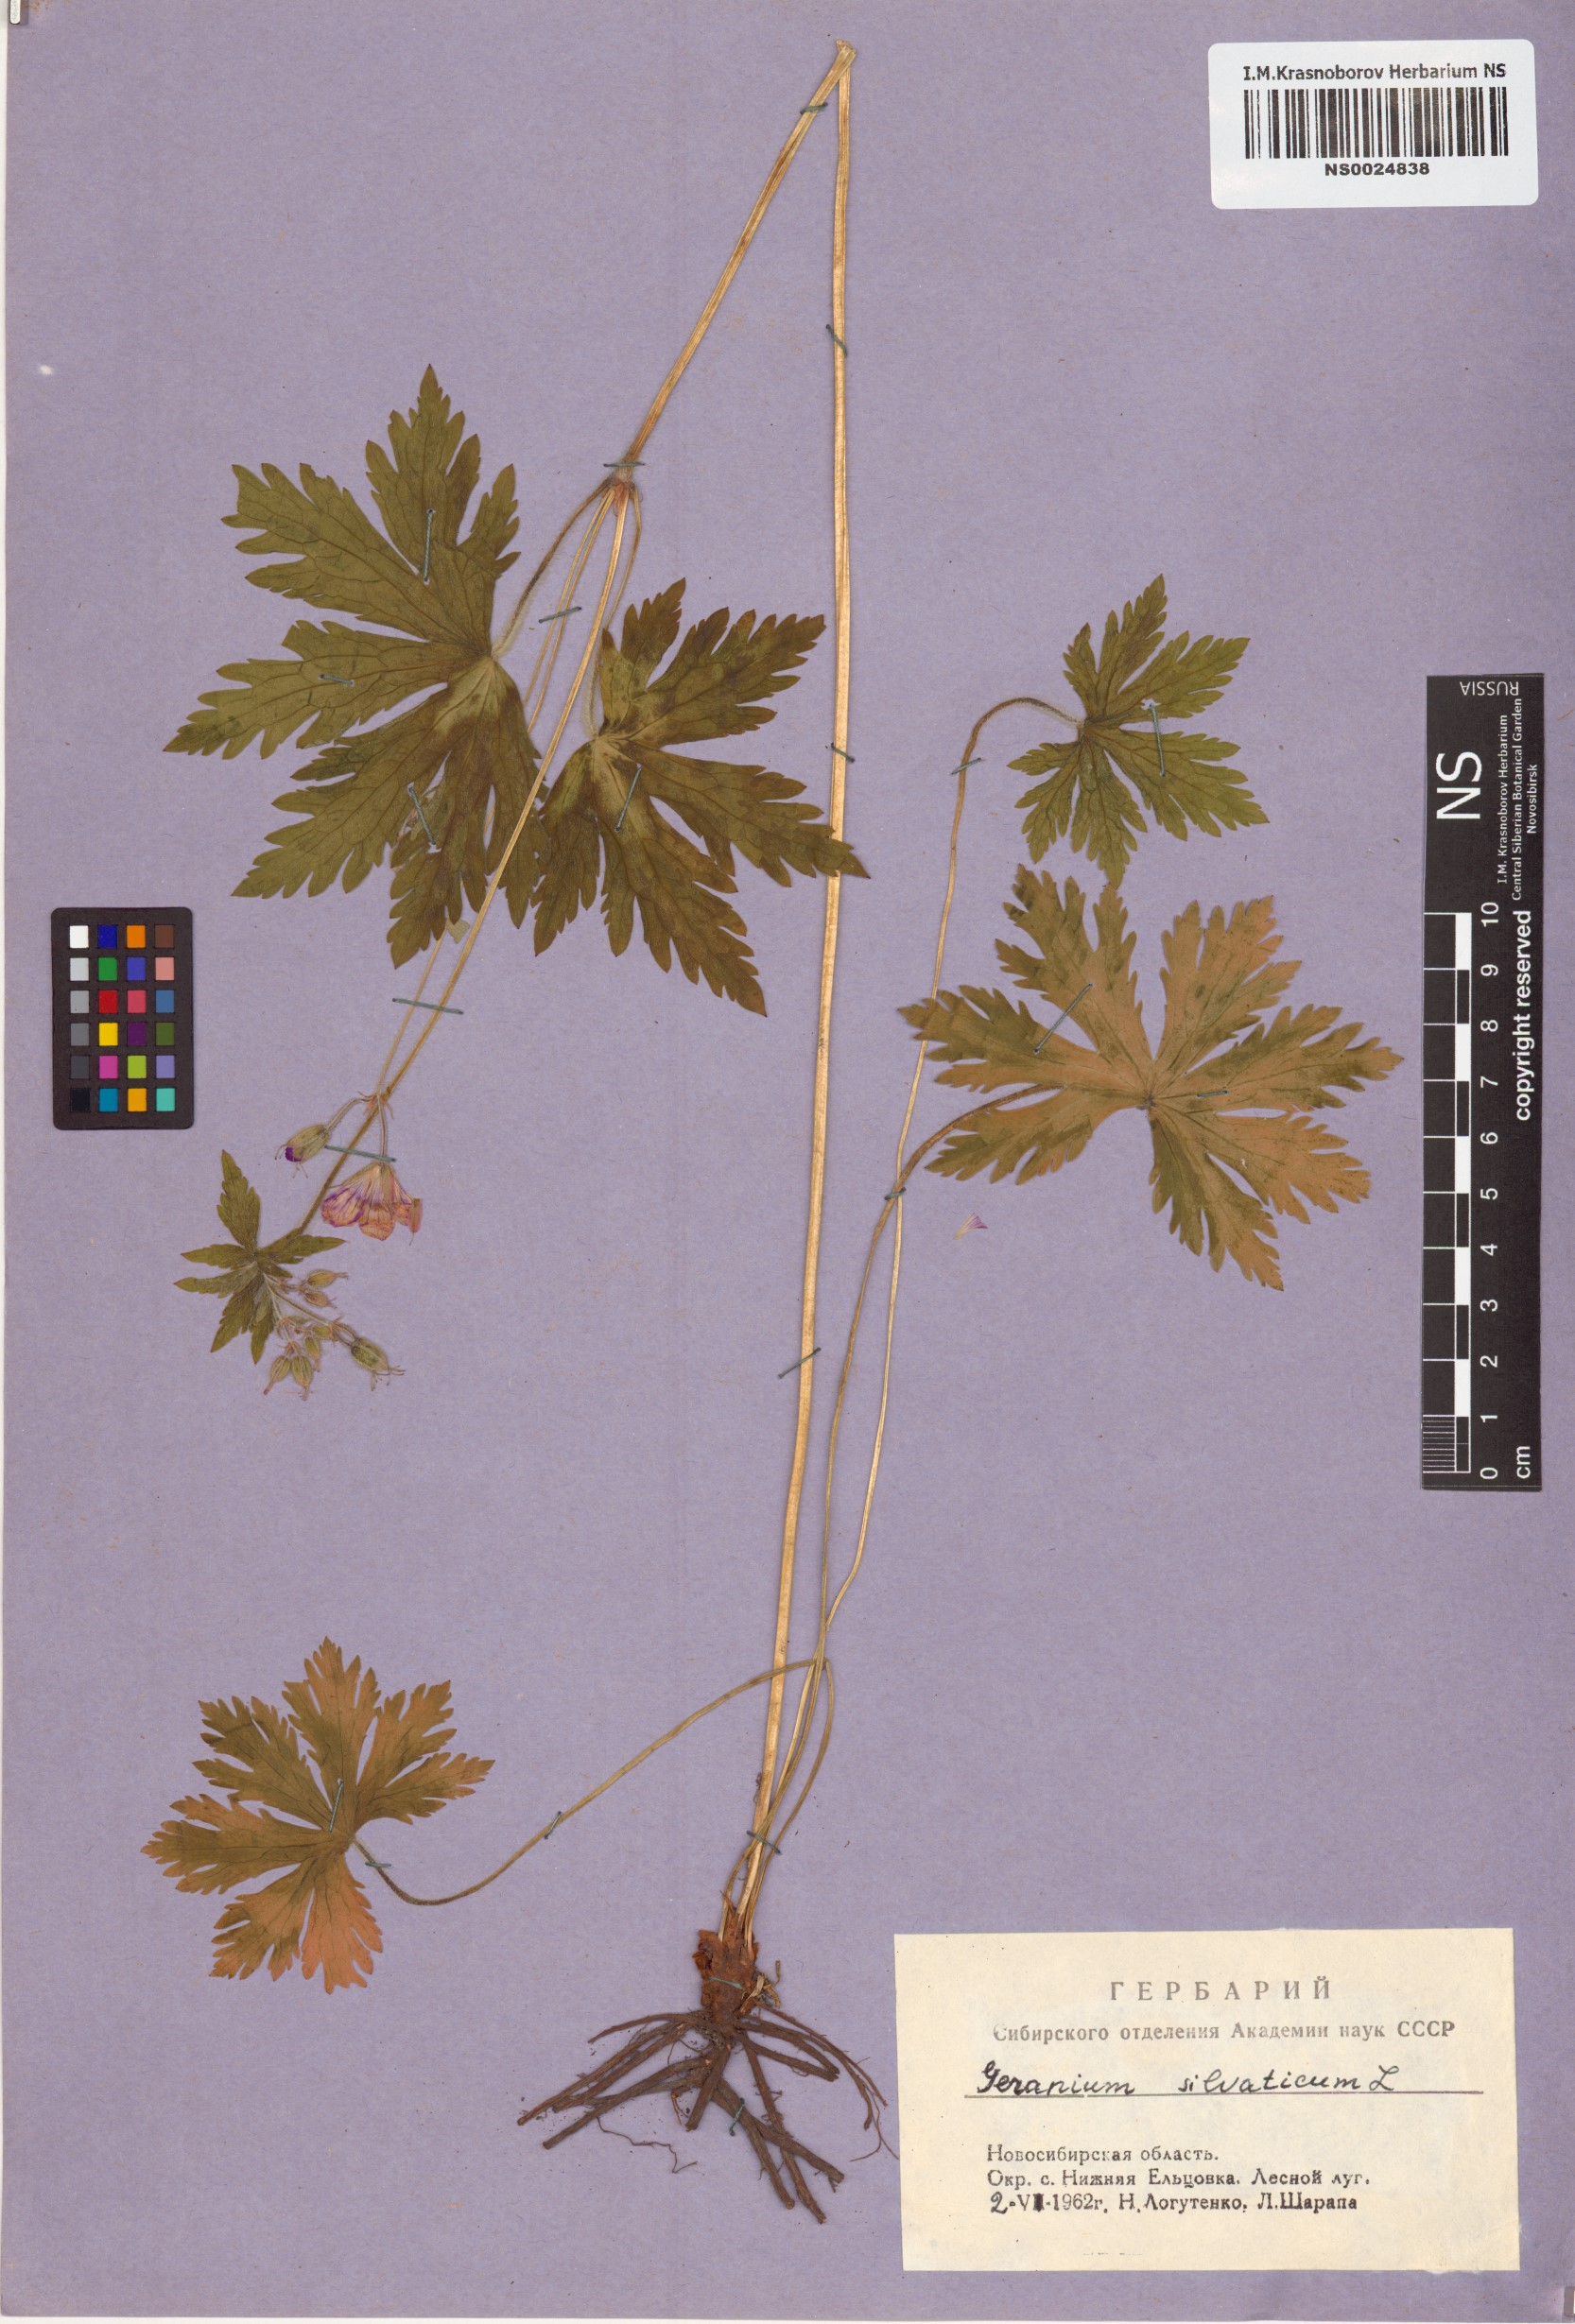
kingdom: Plantae
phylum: Tracheophyta
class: Magnoliopsida
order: Geraniales
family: Geraniaceae
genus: Geranium
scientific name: Geranium sylvaticum
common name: Wood crane's-bill
